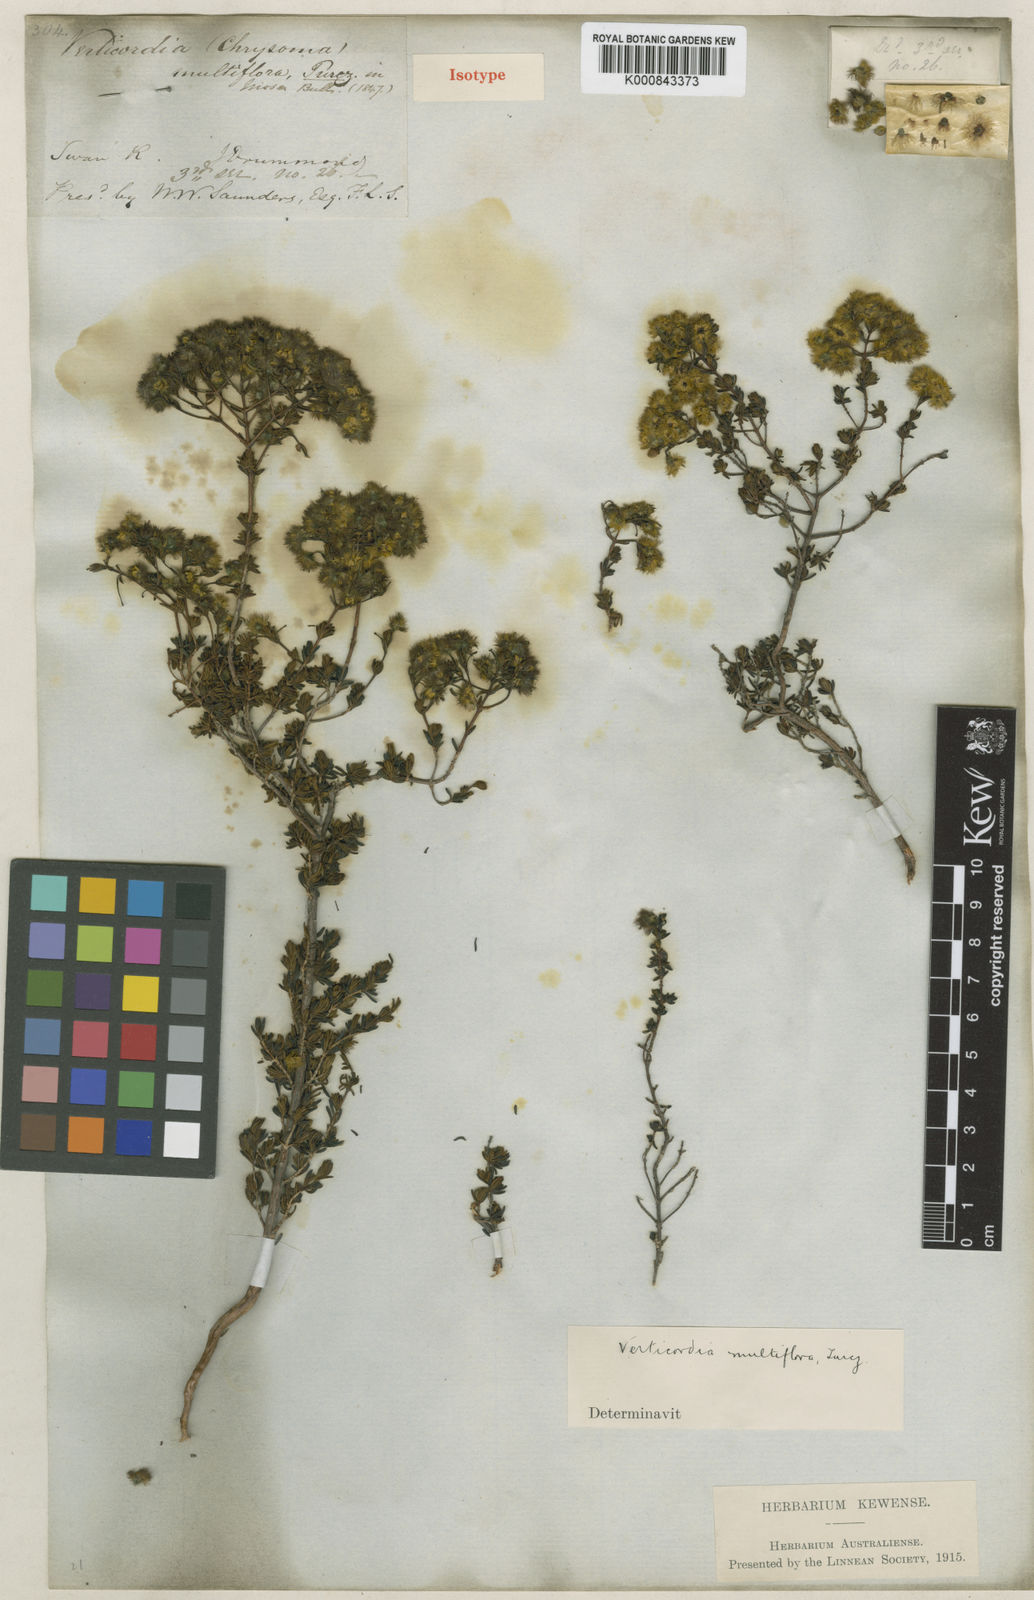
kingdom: Plantae
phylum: Tracheophyta
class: Magnoliopsida
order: Myrtales
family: Myrtaceae
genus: Verticordia
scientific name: Verticordia multiflora
